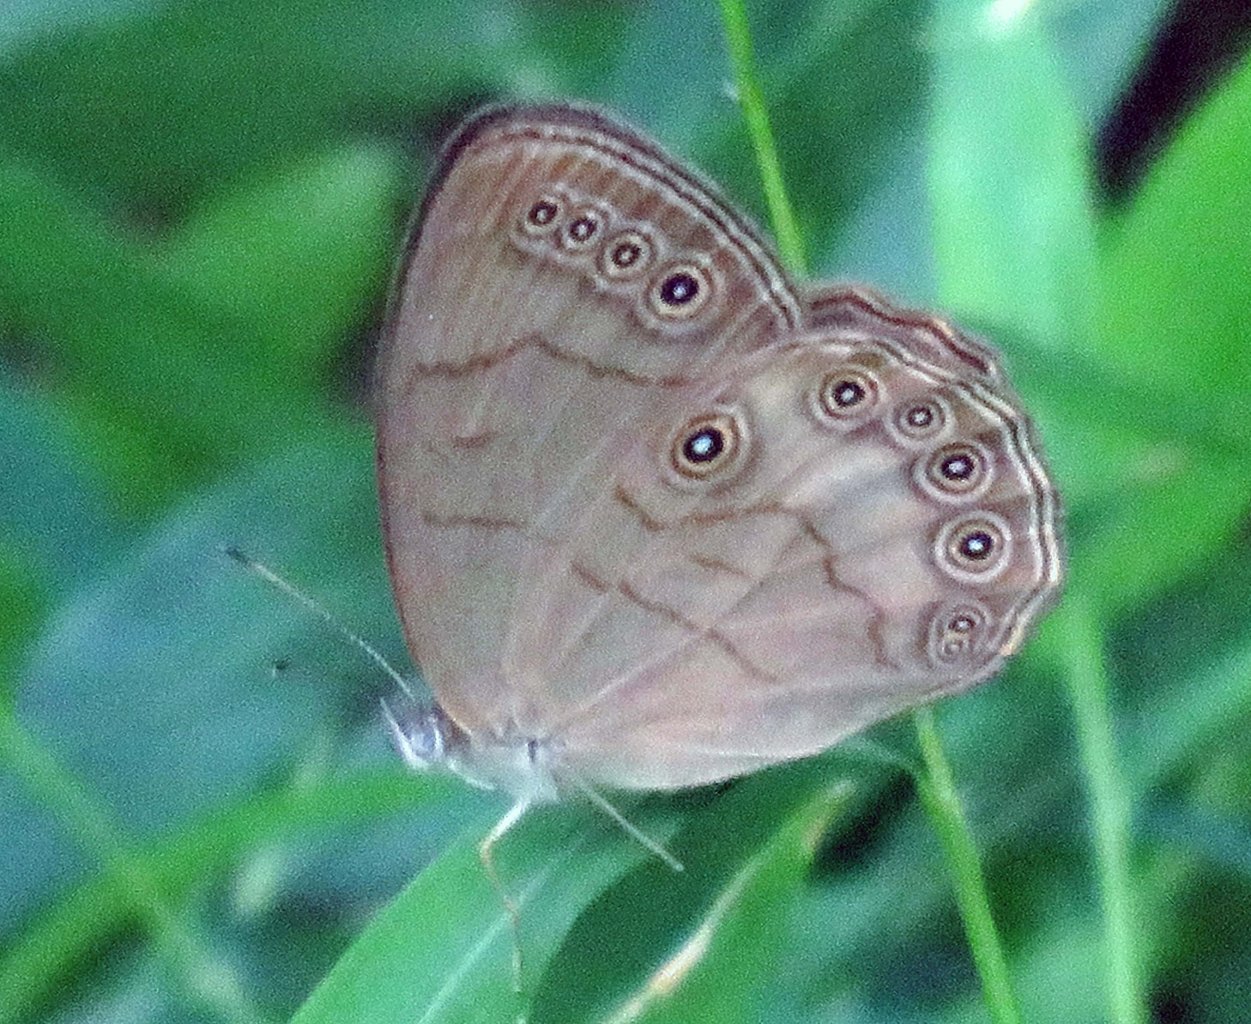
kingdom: Animalia
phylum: Arthropoda
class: Insecta
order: Lepidoptera
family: Nymphalidae
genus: Lethe
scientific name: Lethe eurydice
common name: Appalachian Eyed Brown
